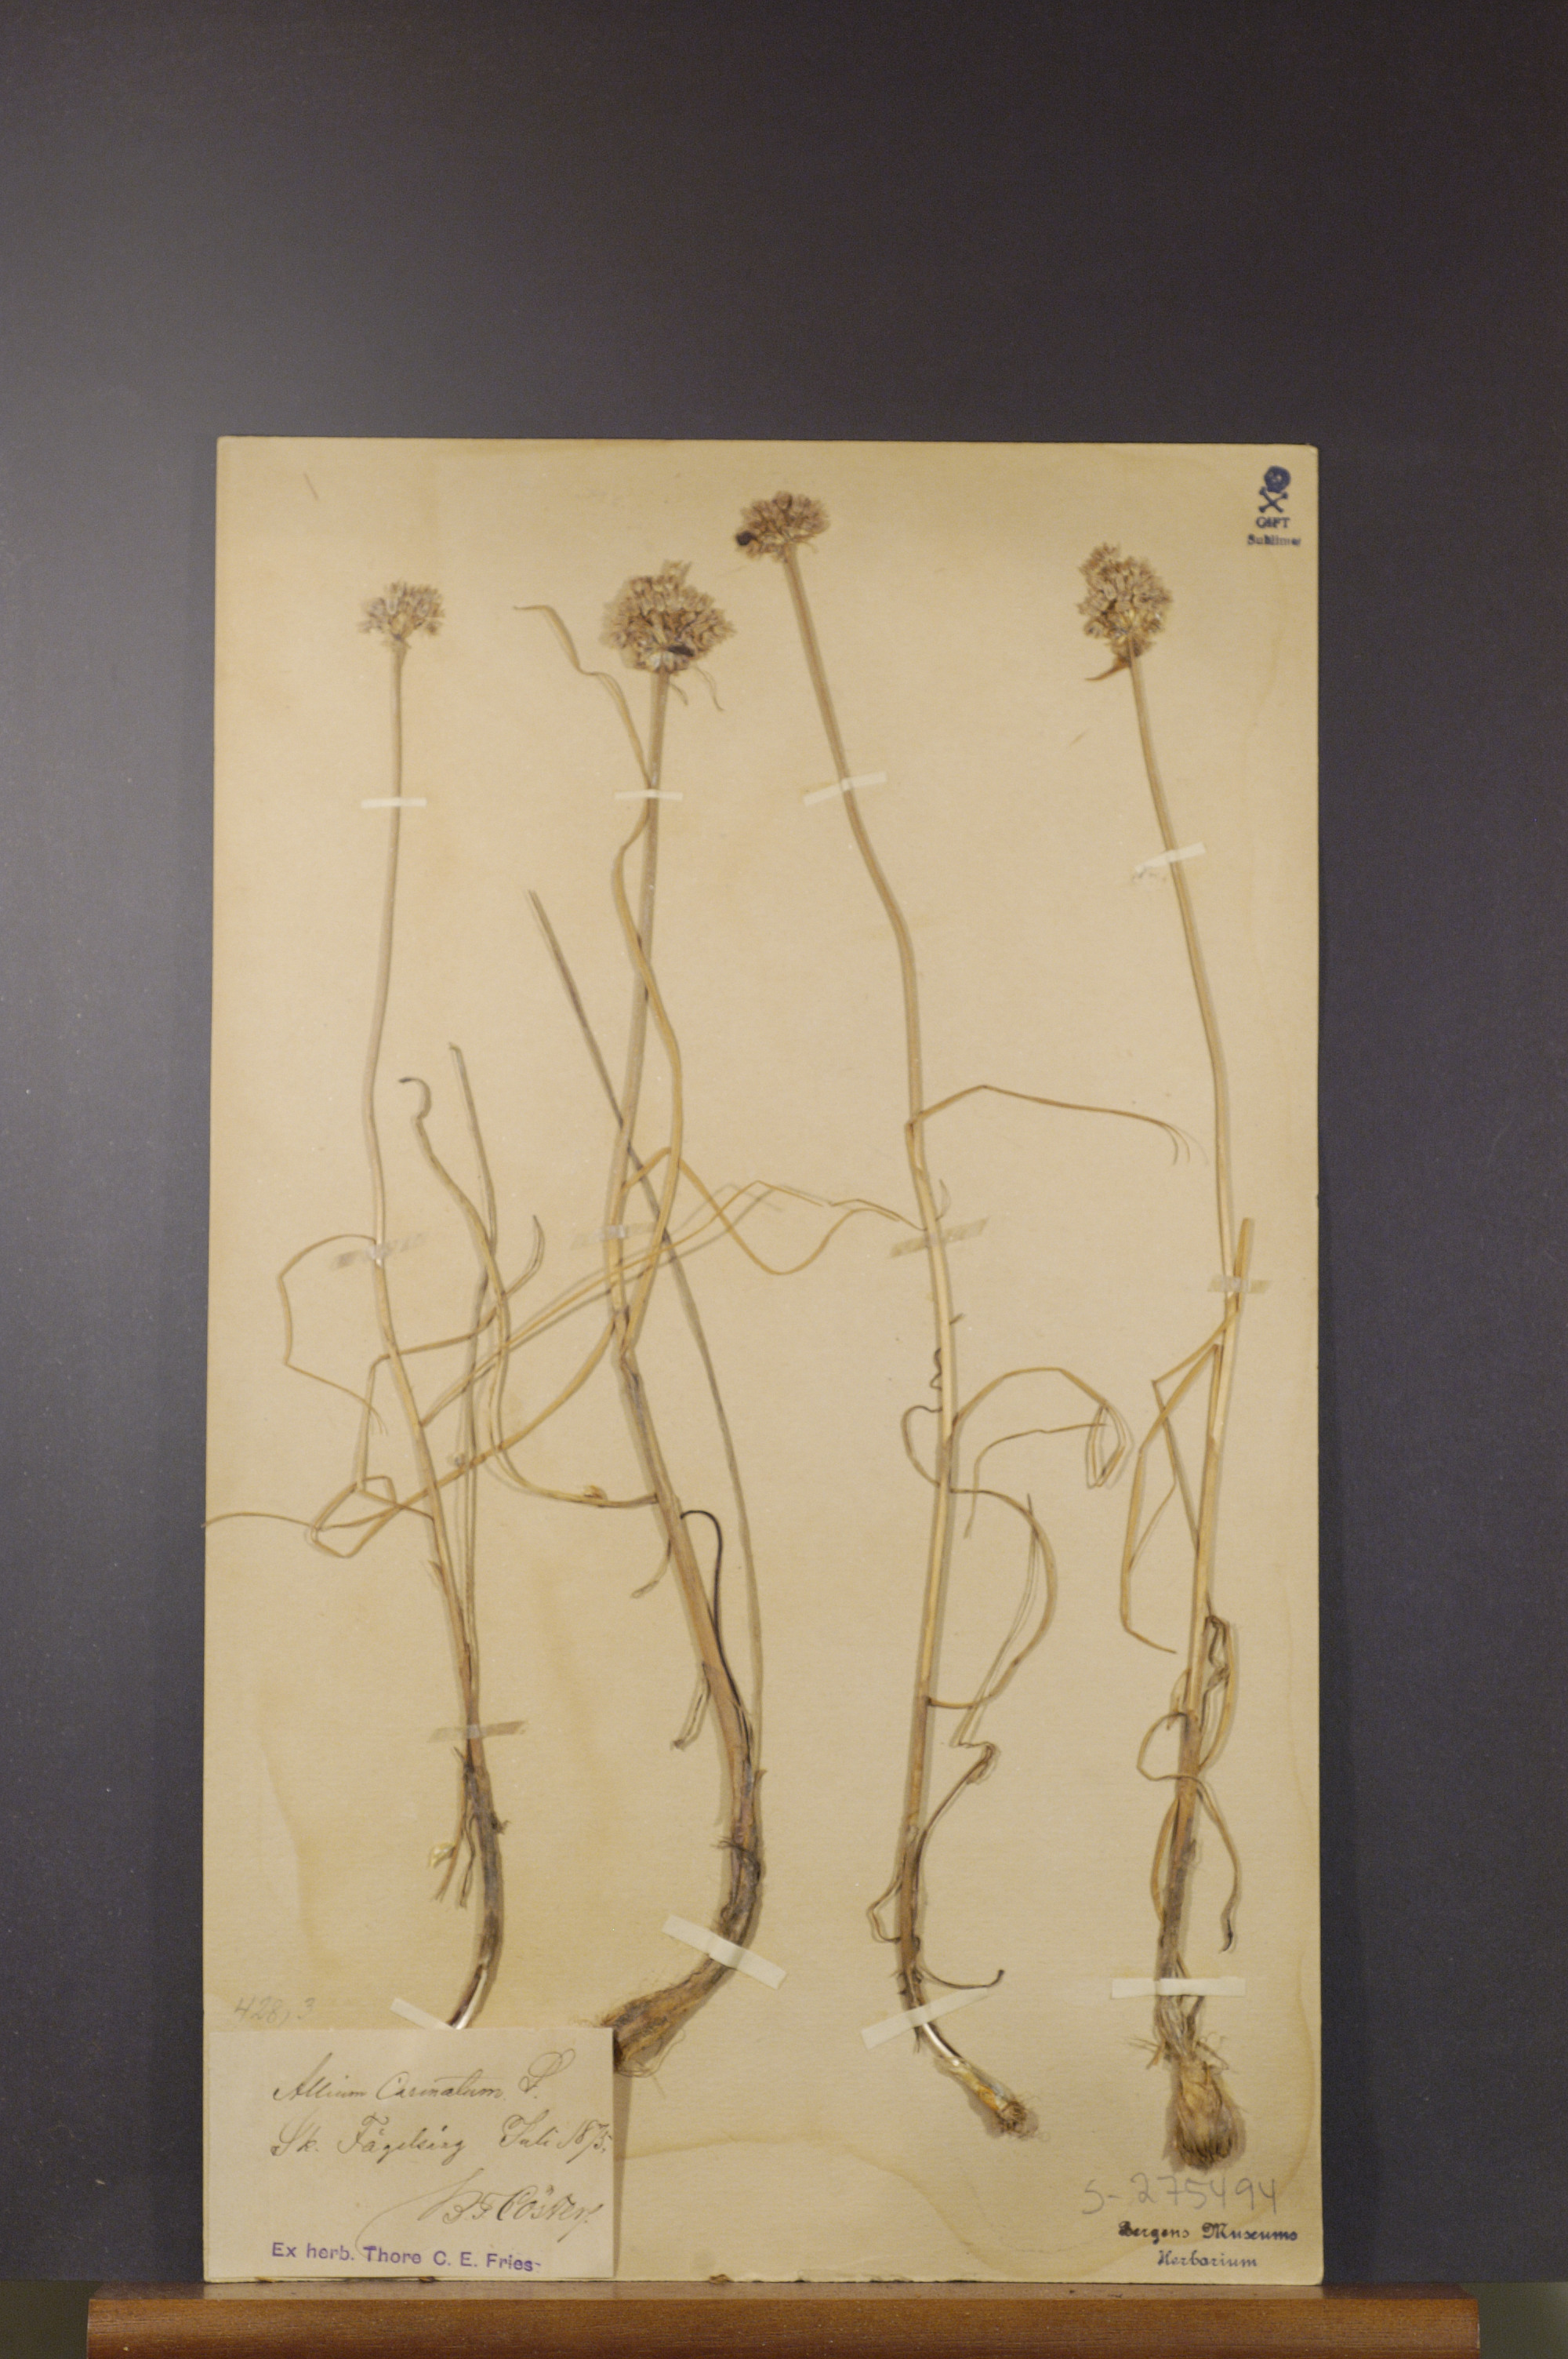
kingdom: Plantae
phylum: Tracheophyta
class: Liliopsida
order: Asparagales
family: Amaryllidaceae
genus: Allium
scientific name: Allium carinatum
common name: Keeled garlic
